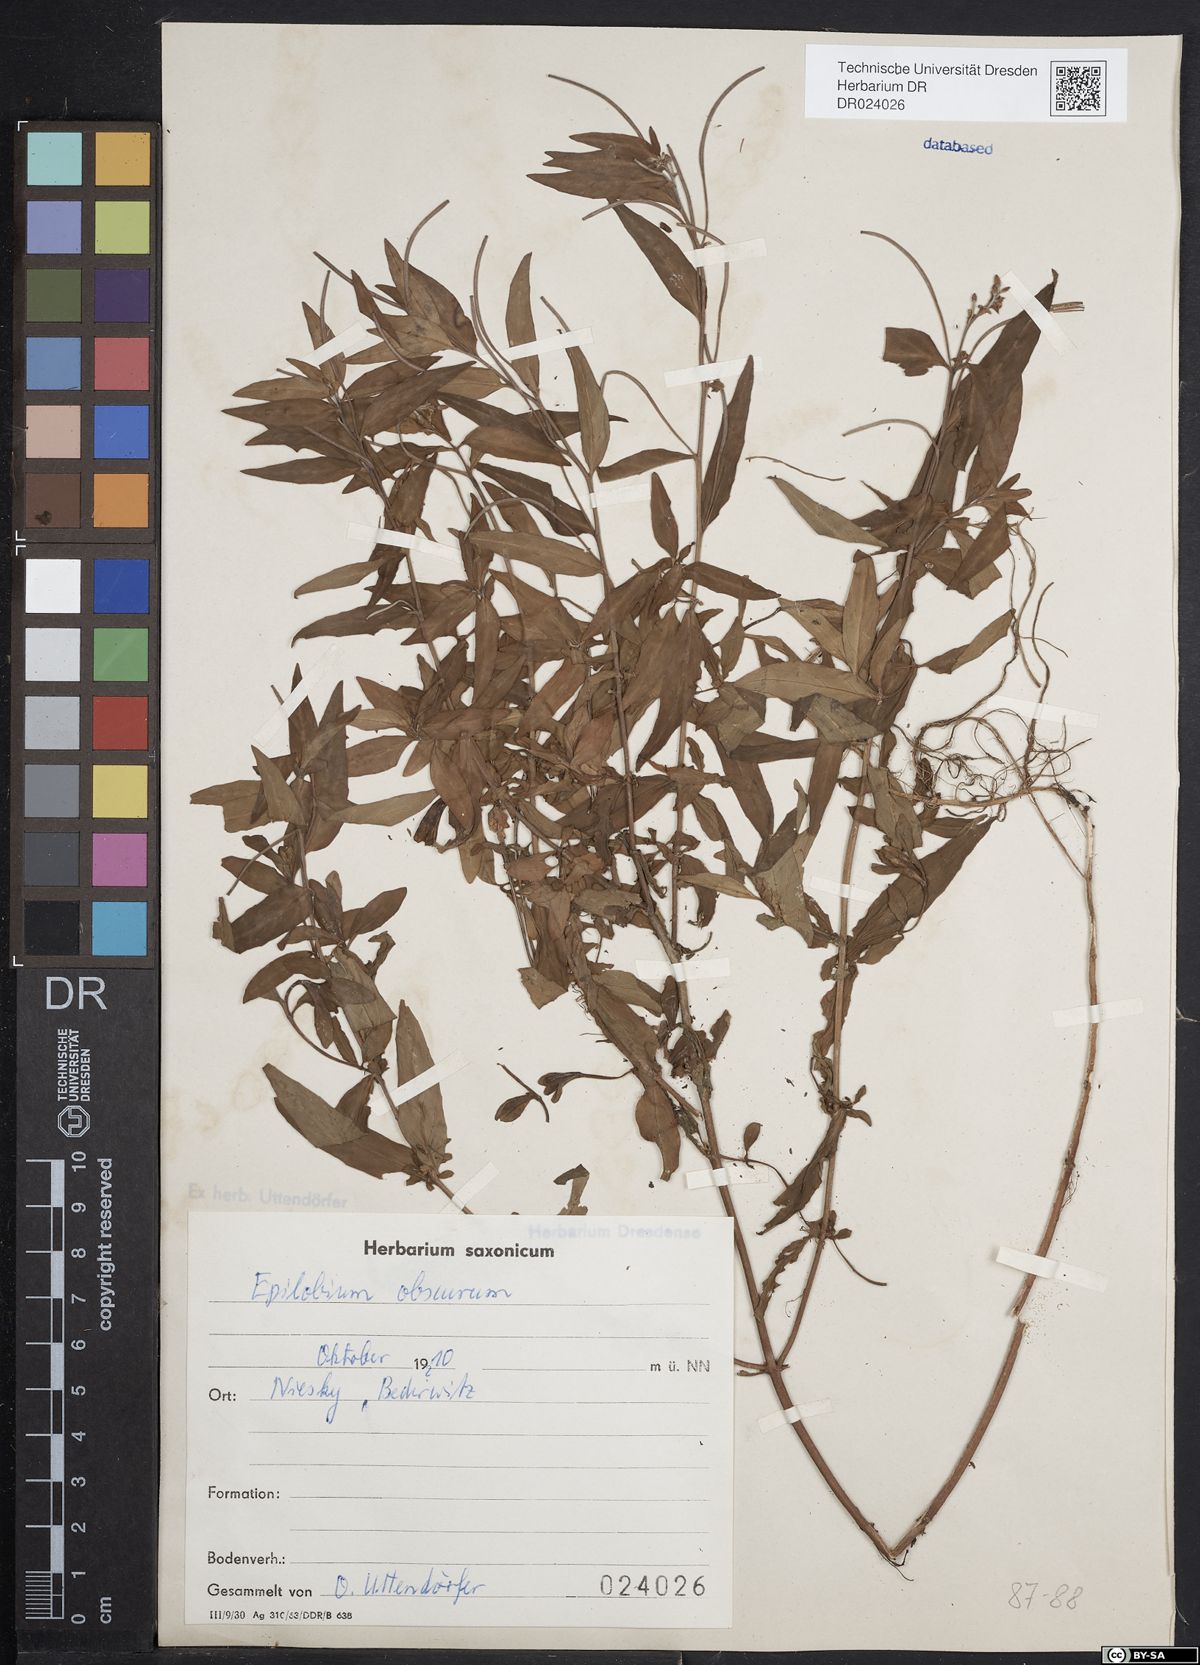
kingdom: Plantae
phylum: Tracheophyta
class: Magnoliopsida
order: Myrtales
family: Onagraceae
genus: Epilobium
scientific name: Epilobium obscurum
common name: Short-fruited willowherb
